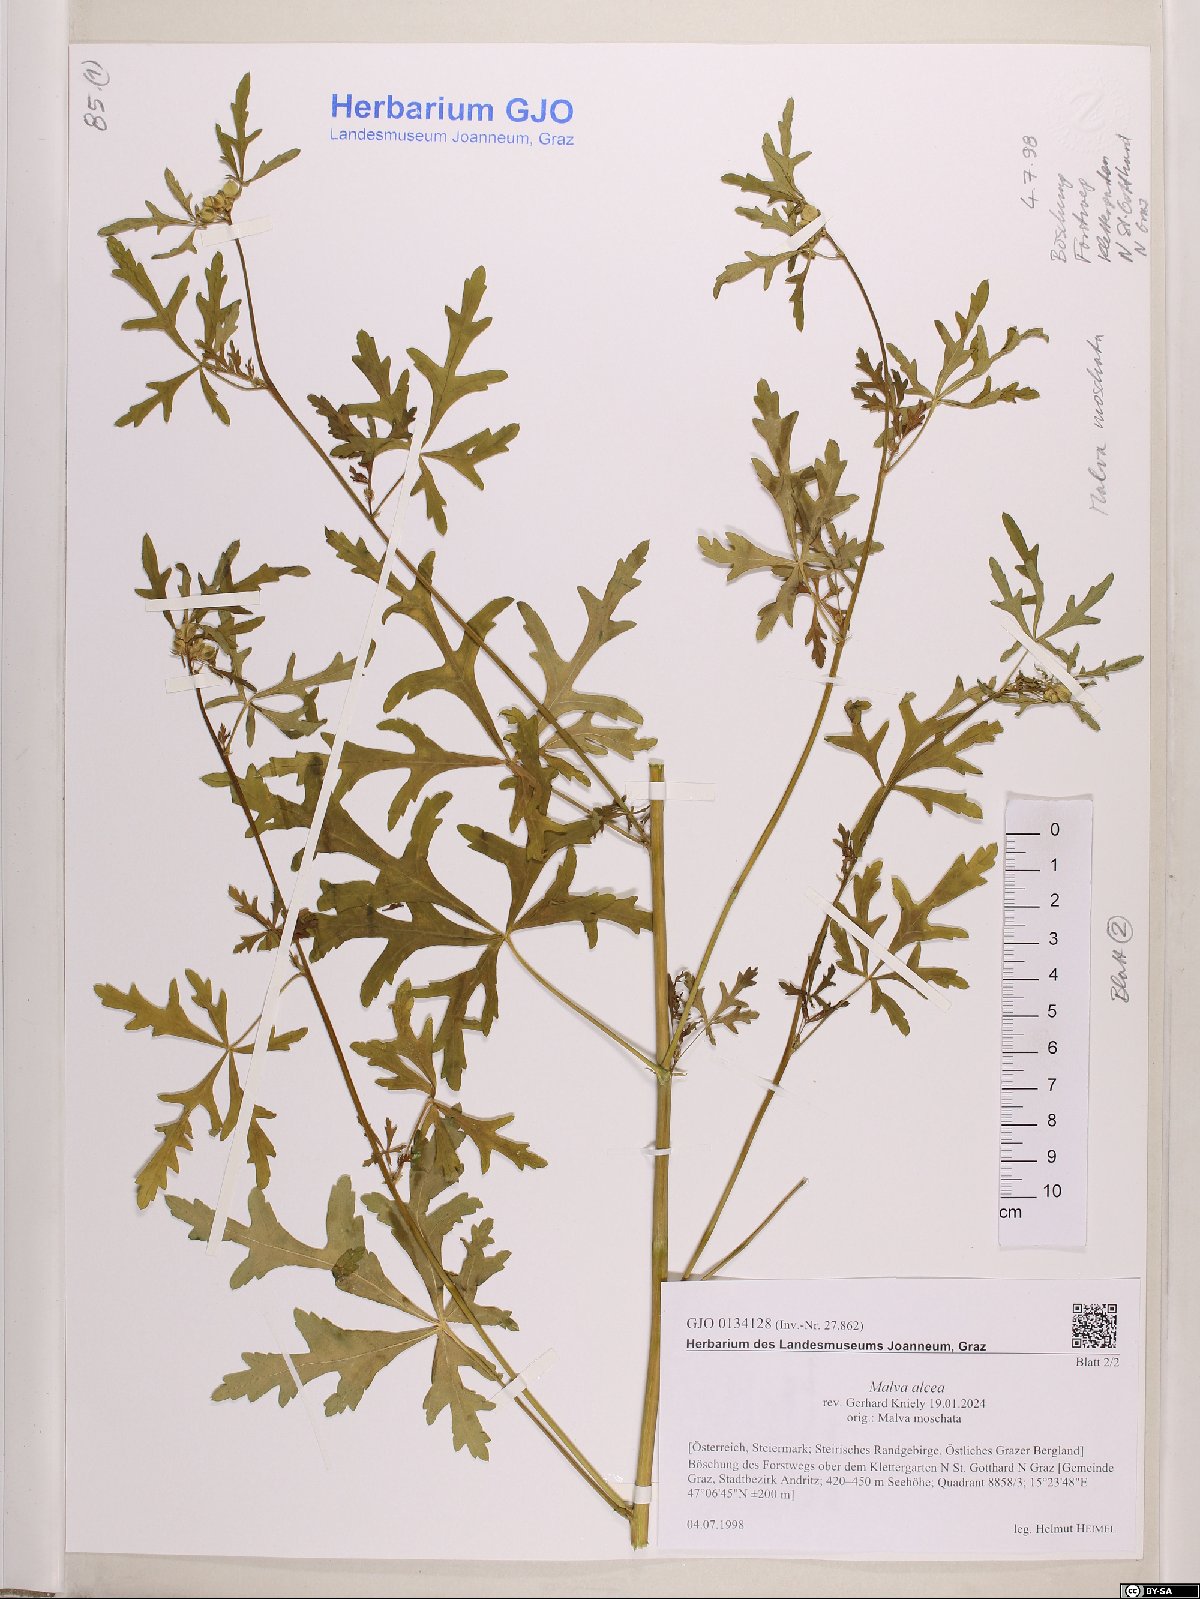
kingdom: Plantae
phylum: Tracheophyta
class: Magnoliopsida
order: Malvales
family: Malvaceae
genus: Malva
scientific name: Malva alcea
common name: Greater musk-mallow
